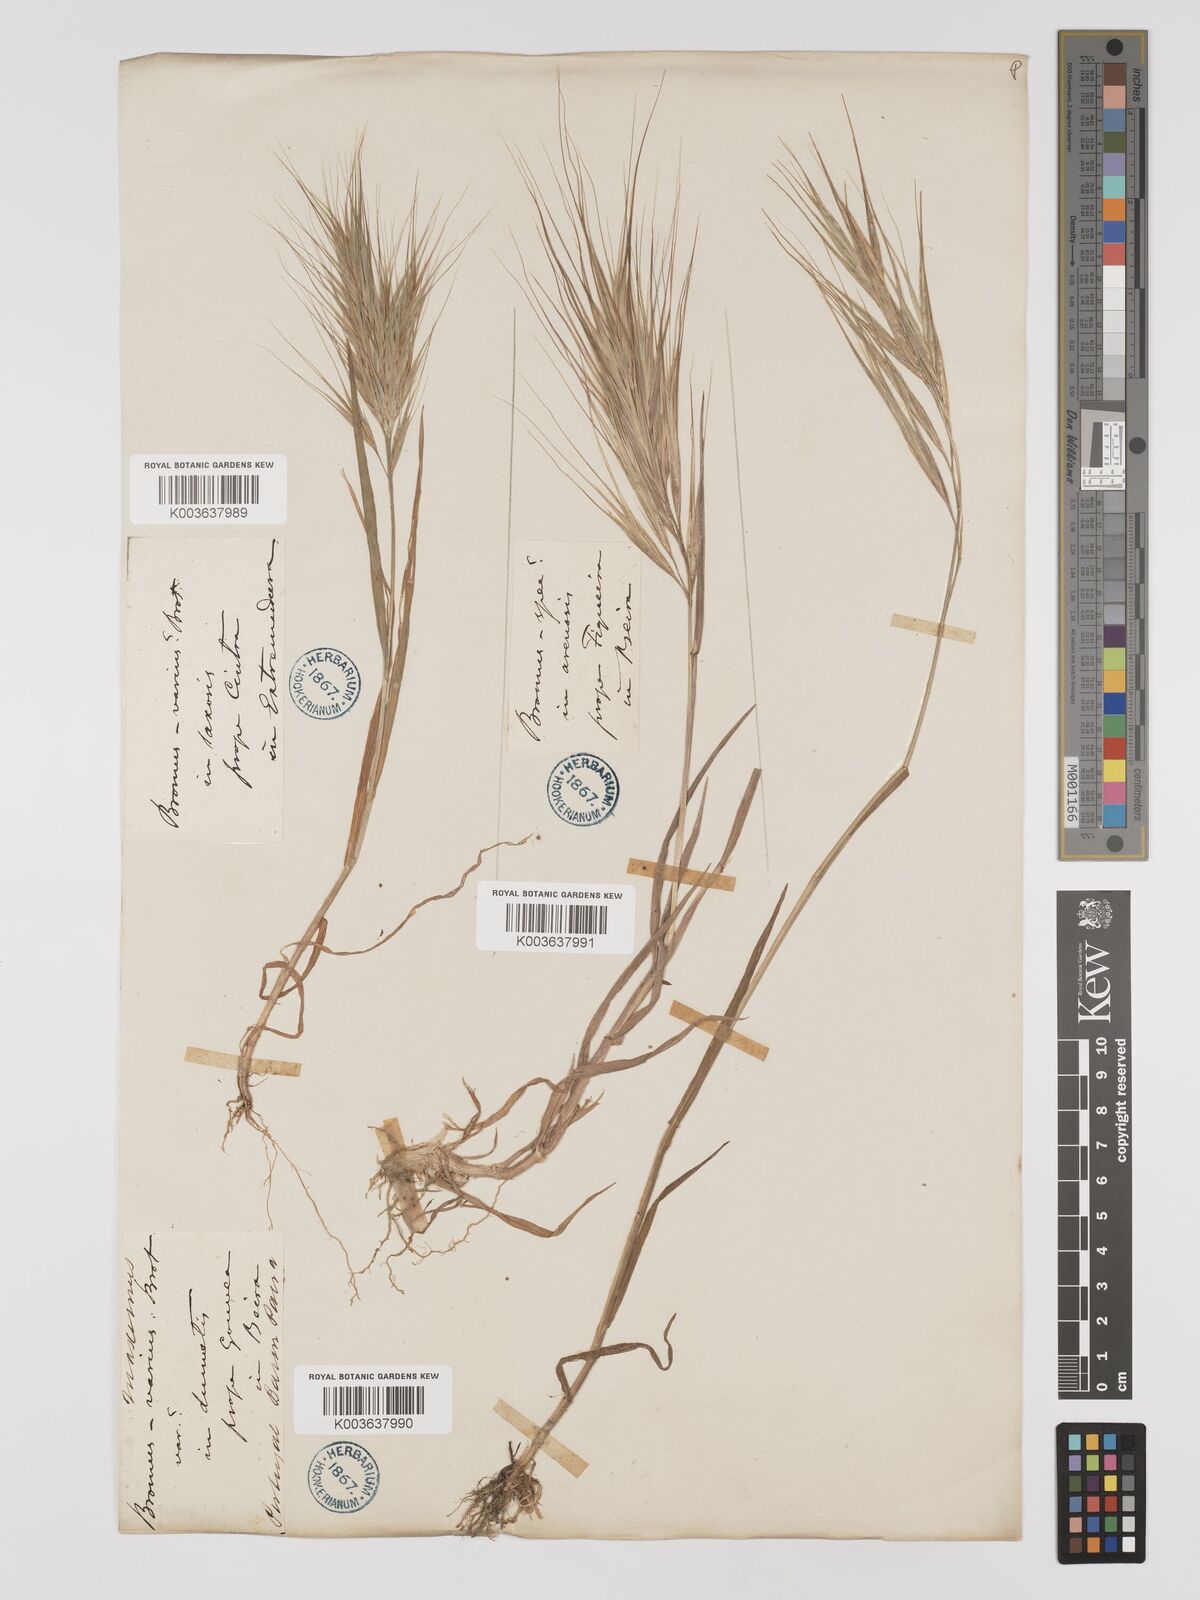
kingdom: Plantae
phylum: Tracheophyta
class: Liliopsida
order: Poales
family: Poaceae
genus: Bromus
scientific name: Bromus
